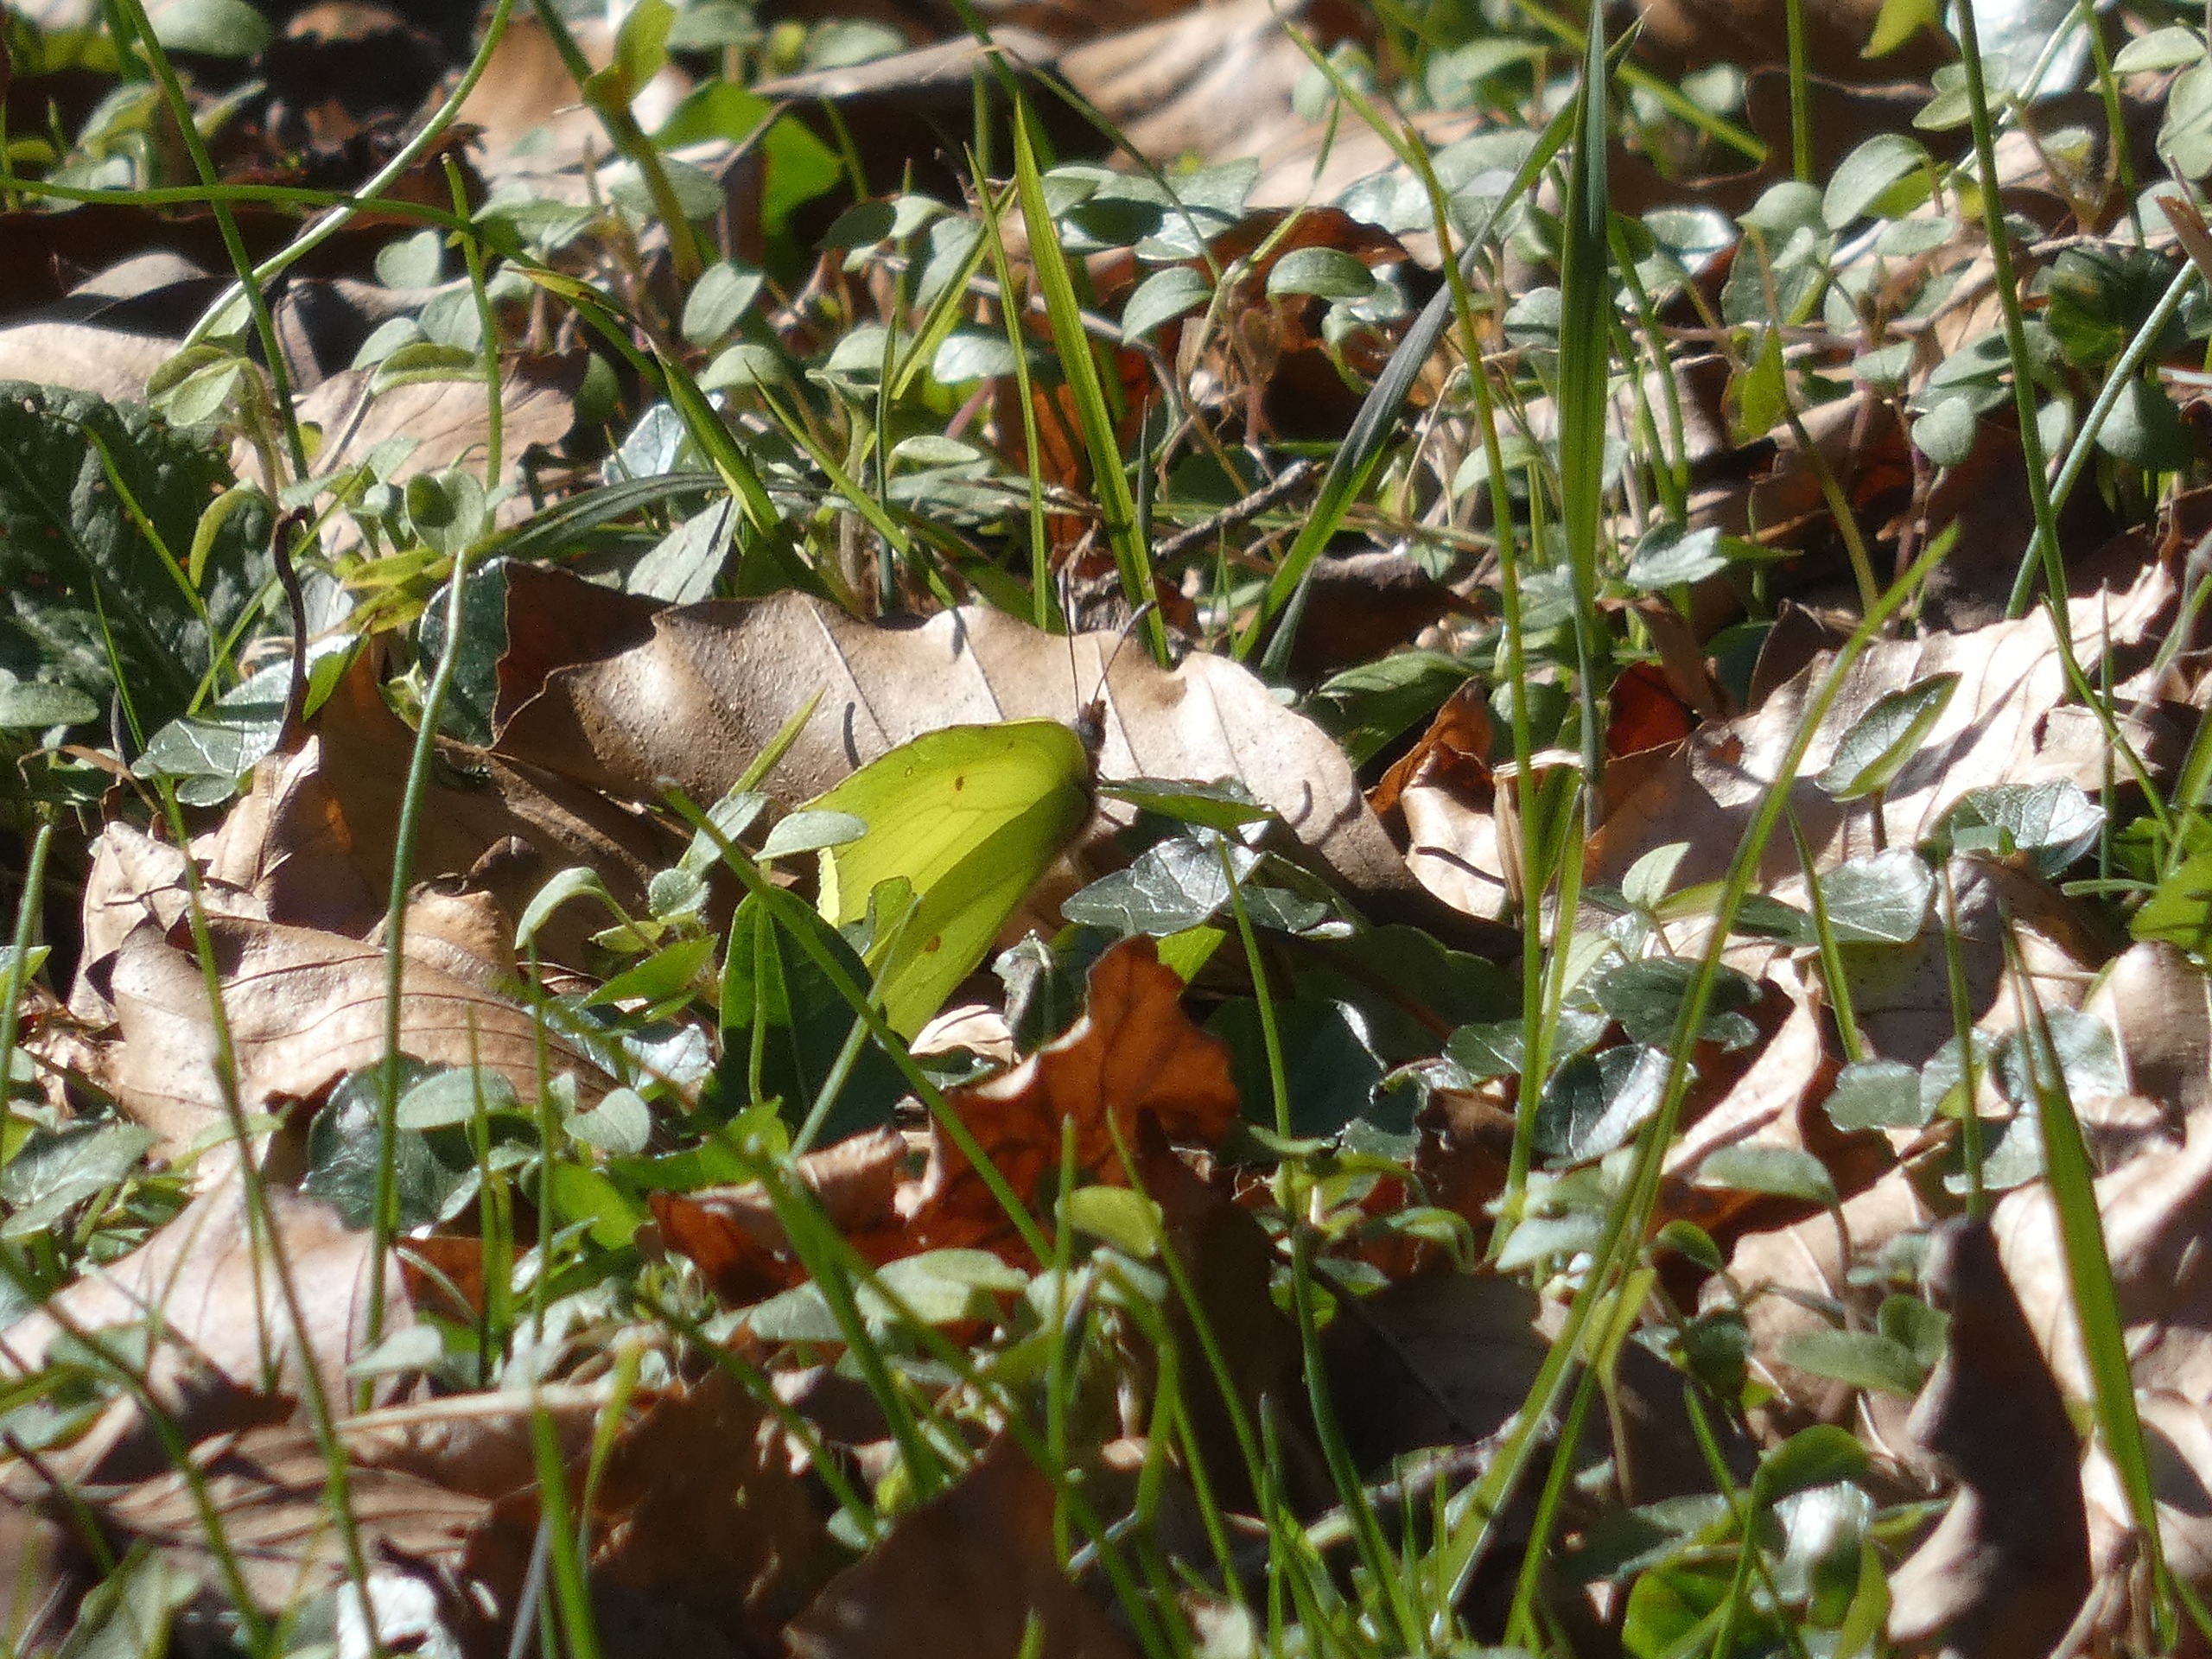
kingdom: Animalia
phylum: Arthropoda
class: Insecta
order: Lepidoptera
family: Pieridae
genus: Gonepteryx
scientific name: Gonepteryx rhamni
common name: Citronsommerfugl
